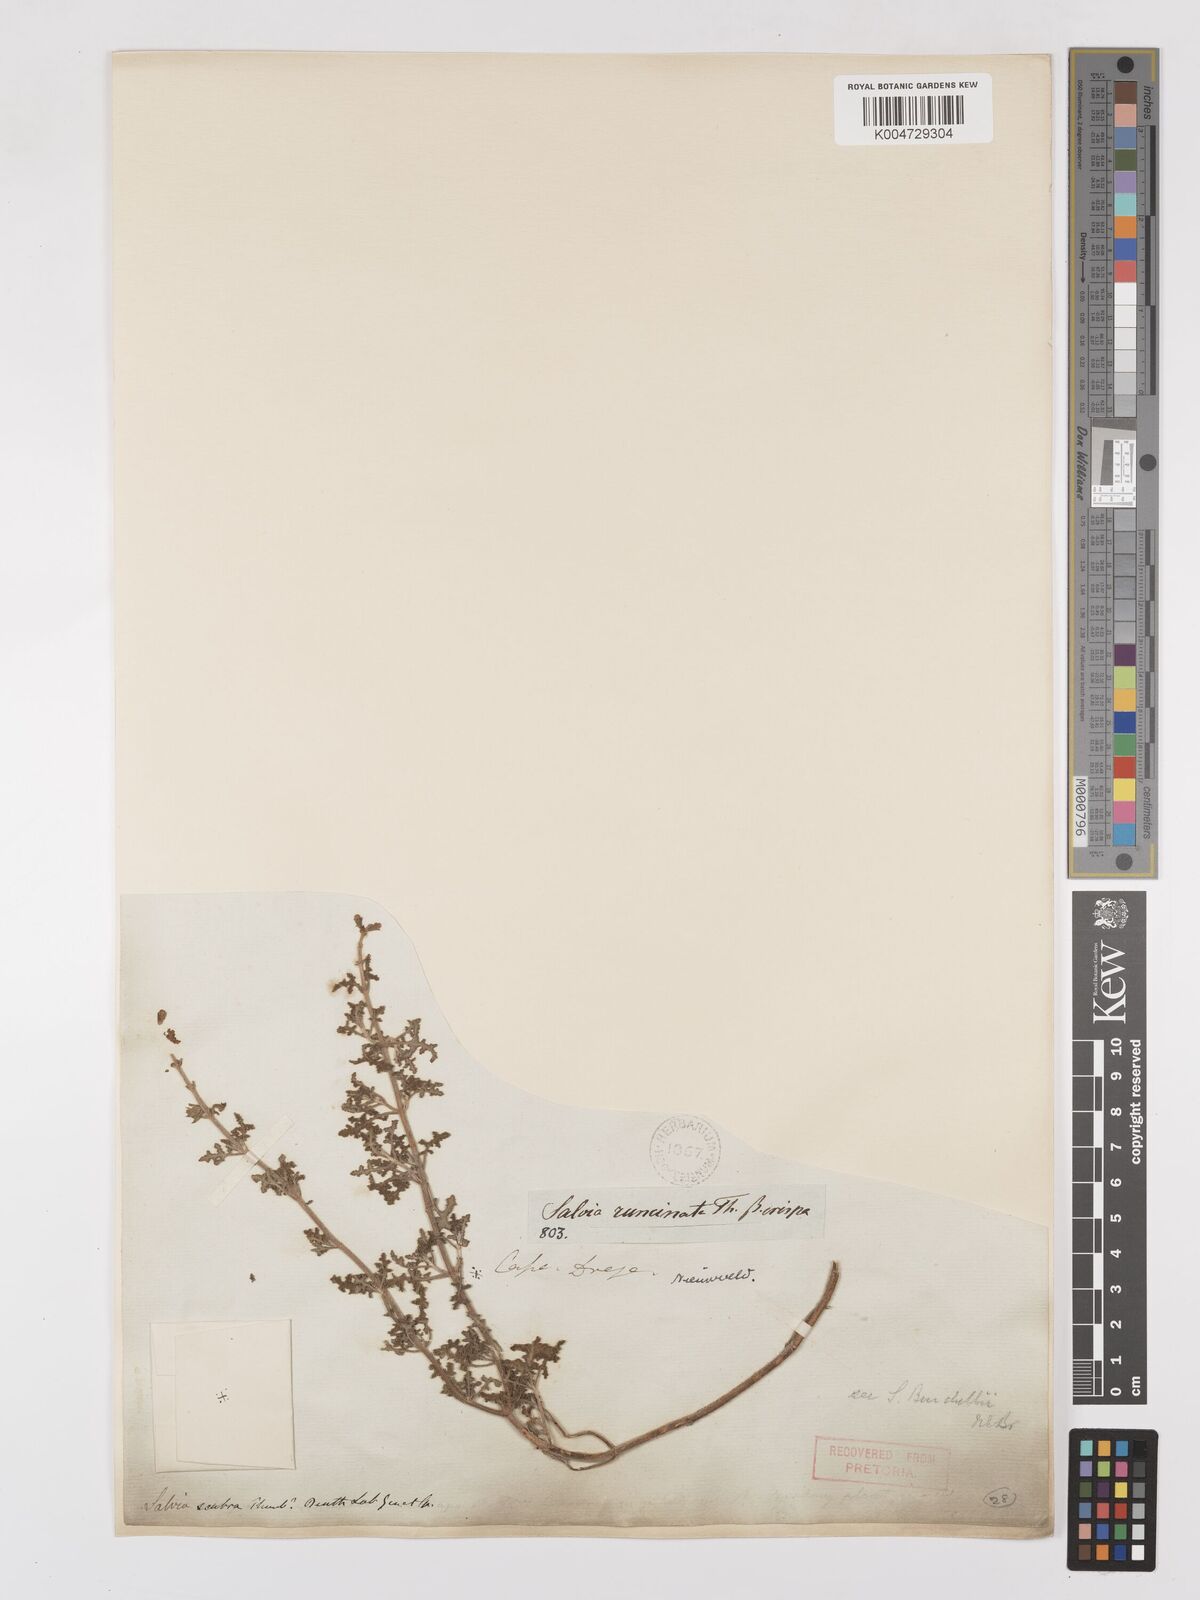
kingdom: Plantae
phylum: Tracheophyta
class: Magnoliopsida
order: Lamiales
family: Lamiaceae
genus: Salvia
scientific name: Salvia runcinata
